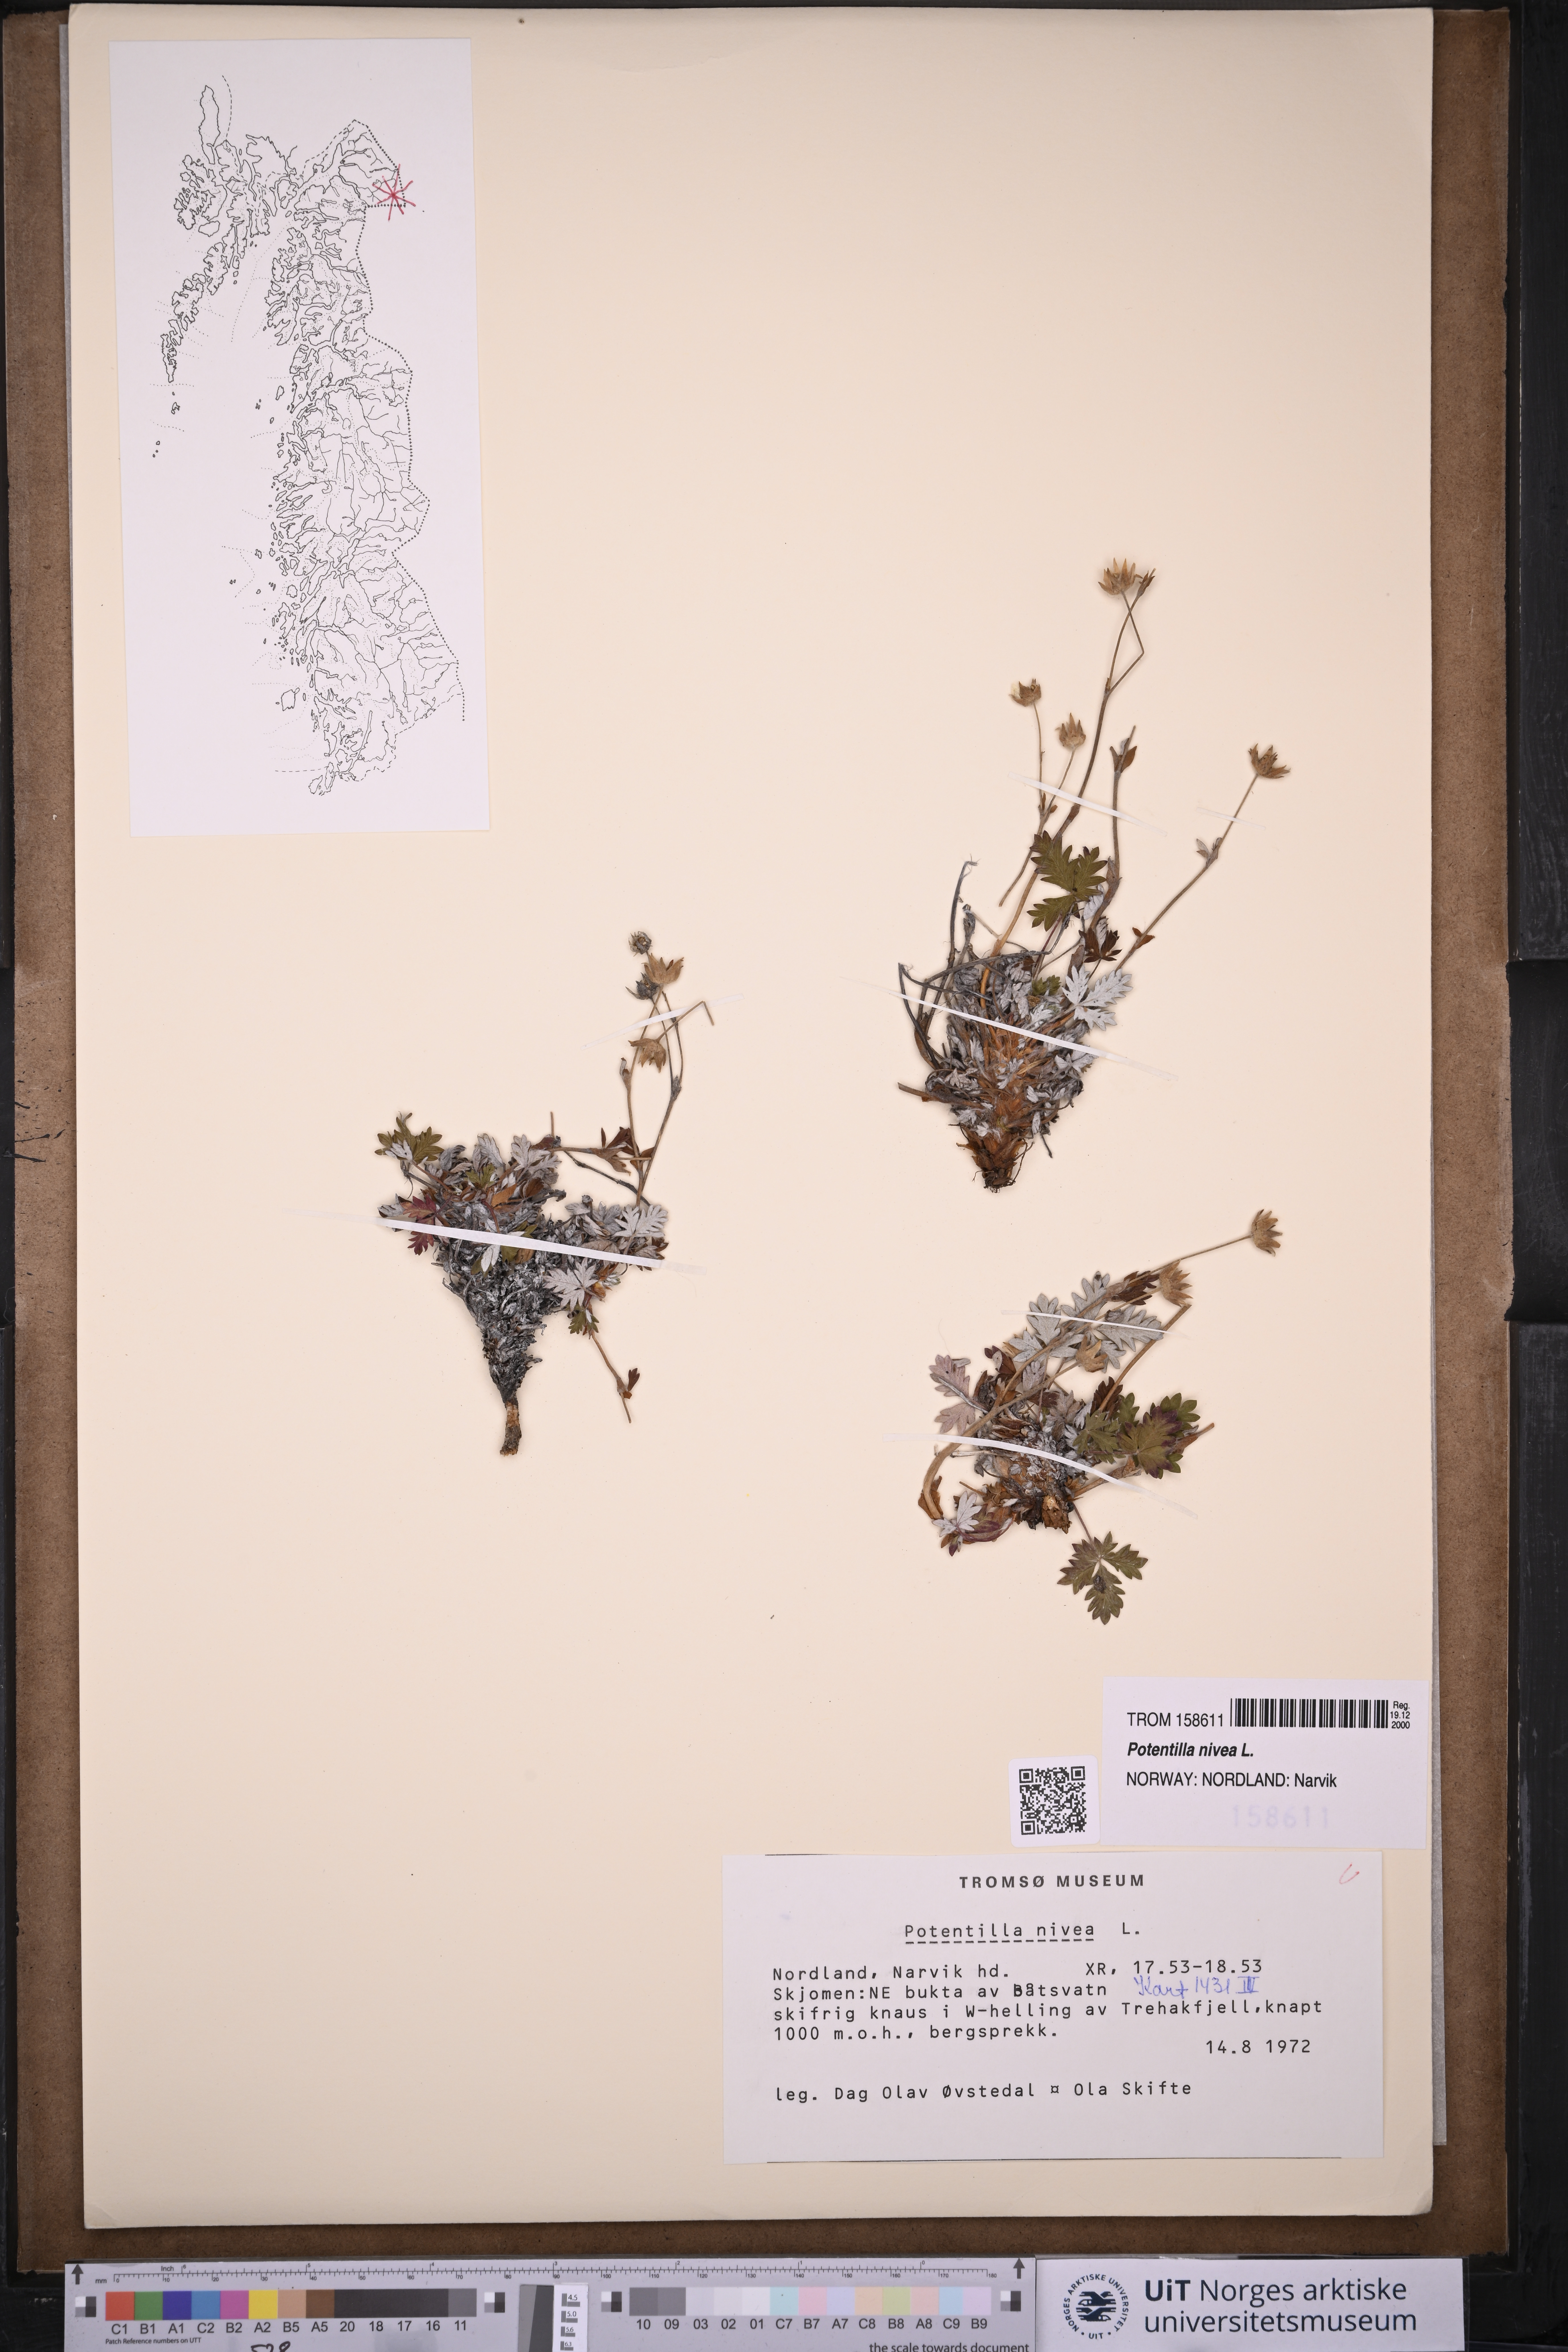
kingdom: Plantae
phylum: Tracheophyta
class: Magnoliopsida
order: Rosales
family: Rosaceae
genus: Potentilla
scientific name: Potentilla arenosa
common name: Bluff cinquefoil
